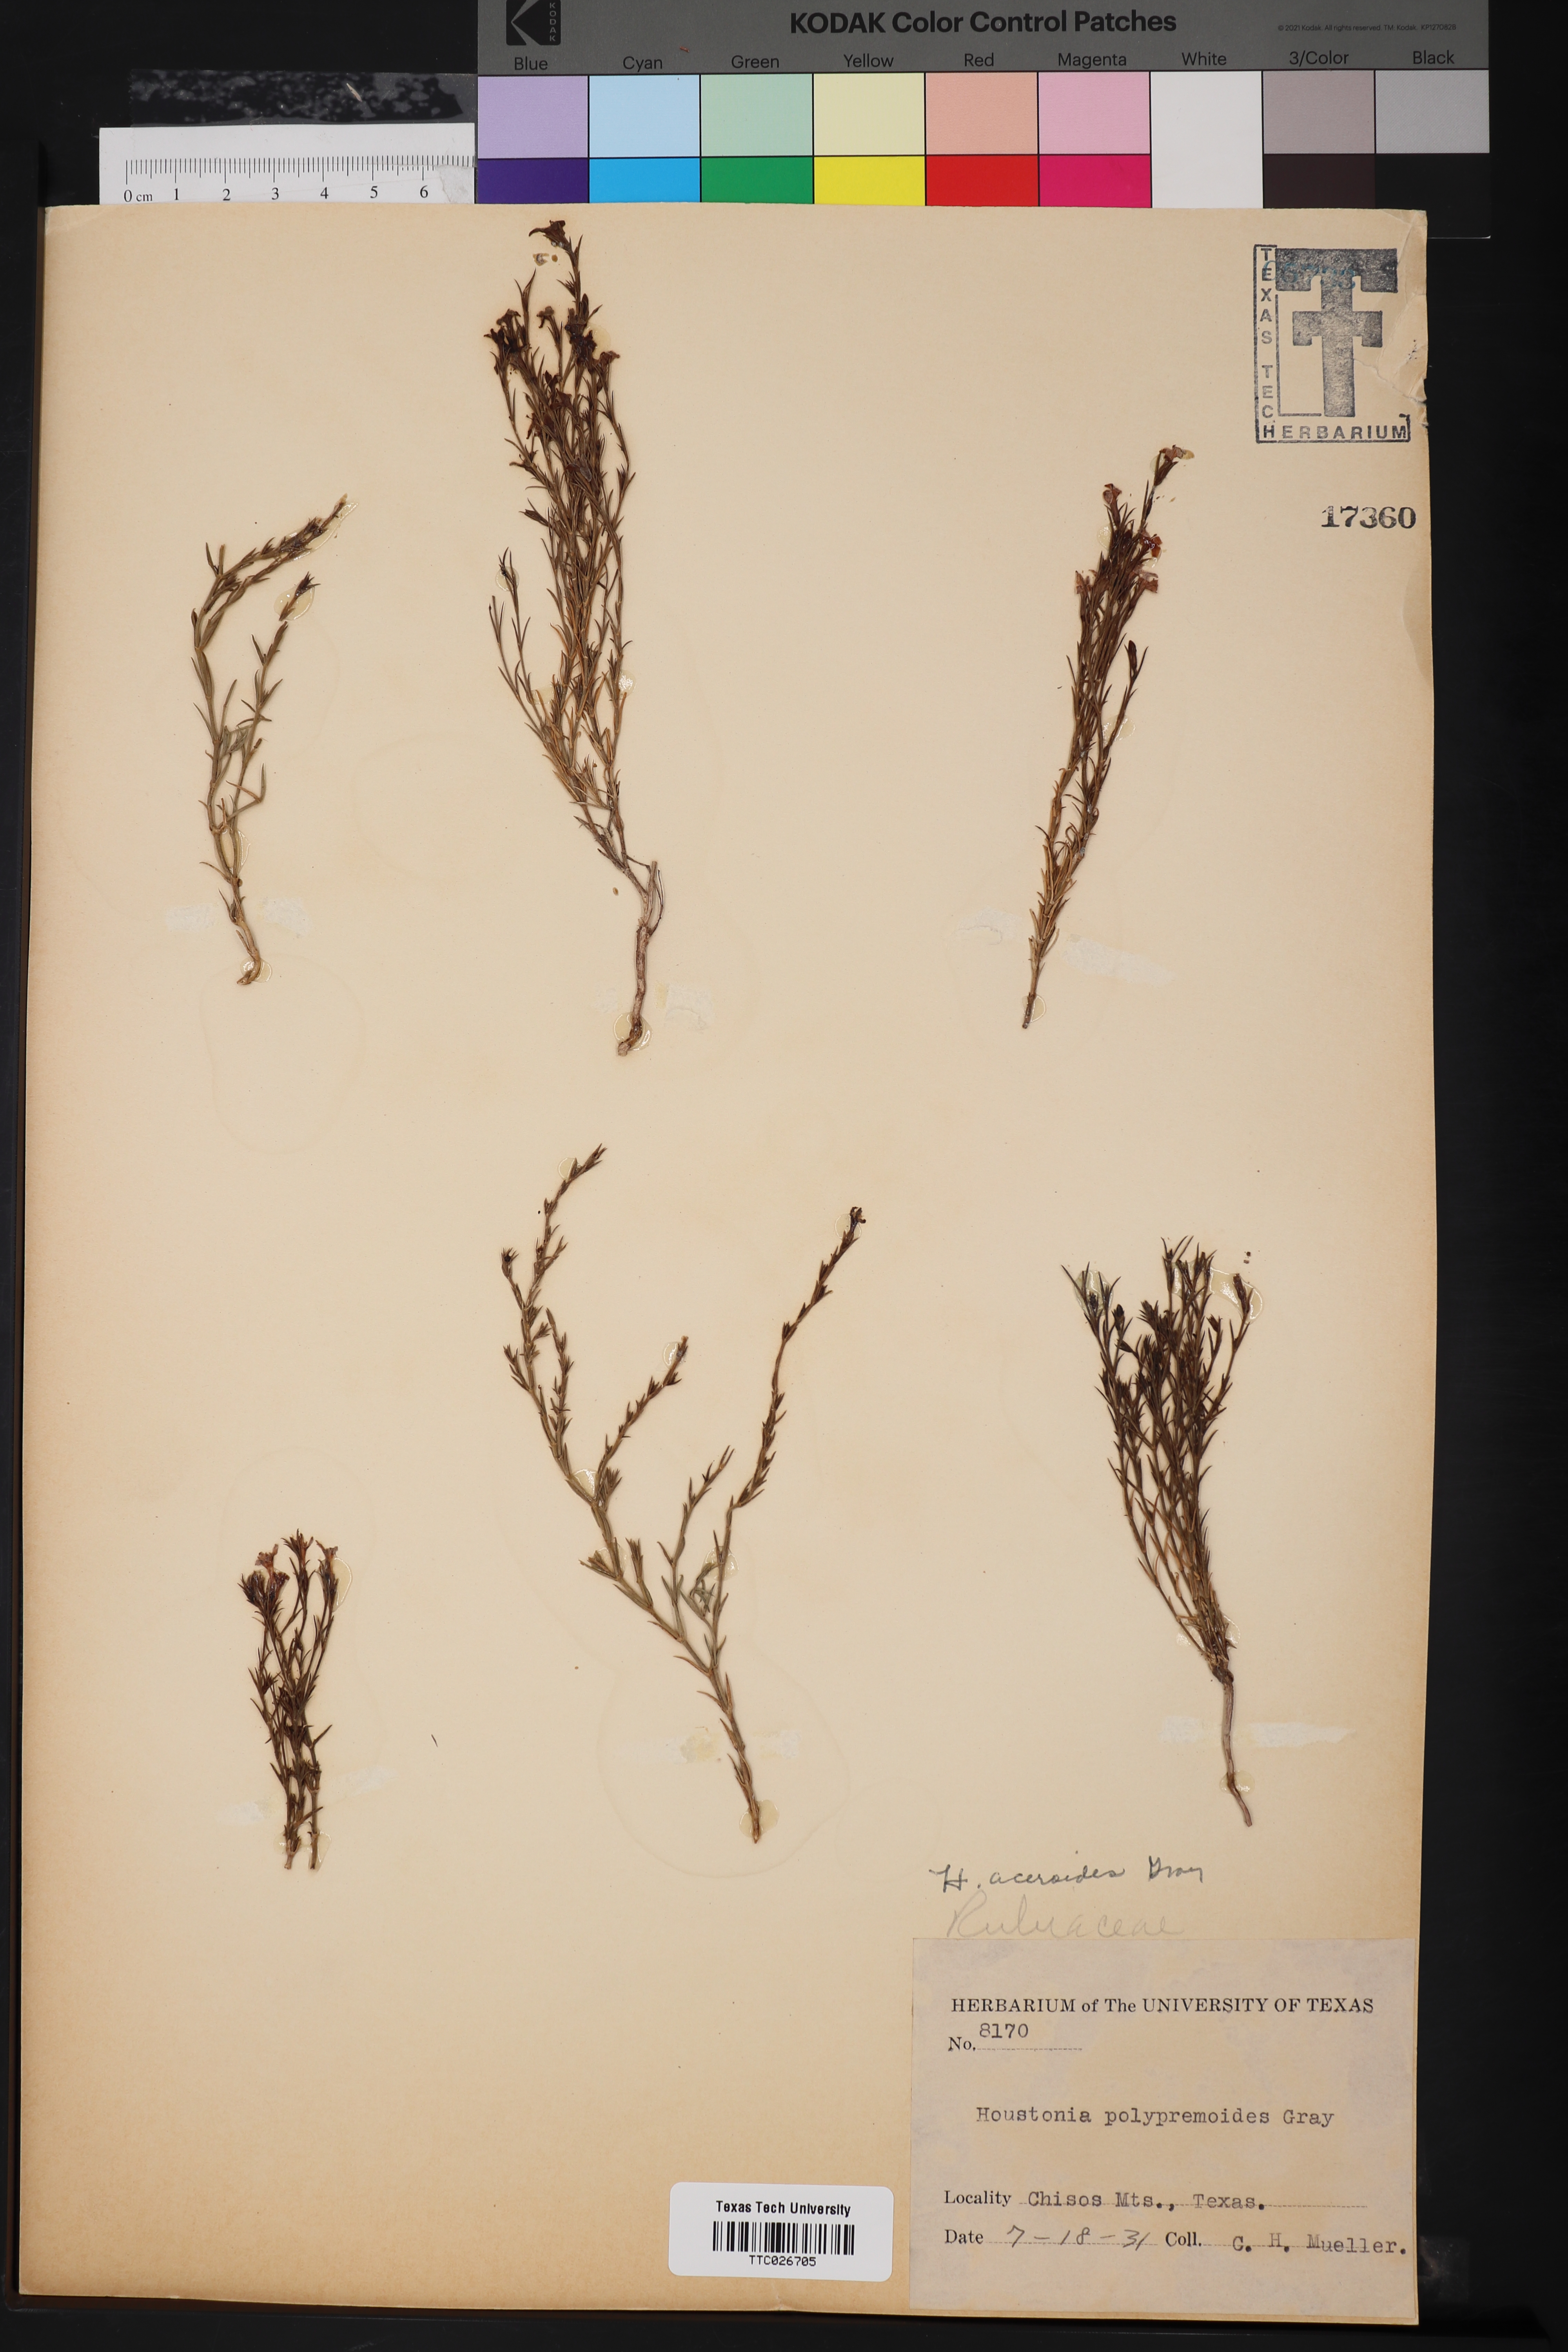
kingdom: Plantae
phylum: Tracheophyta
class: Magnoliopsida
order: Gentianales
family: Rubiaceae
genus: Houstonia
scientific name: Houstonia acerosa
